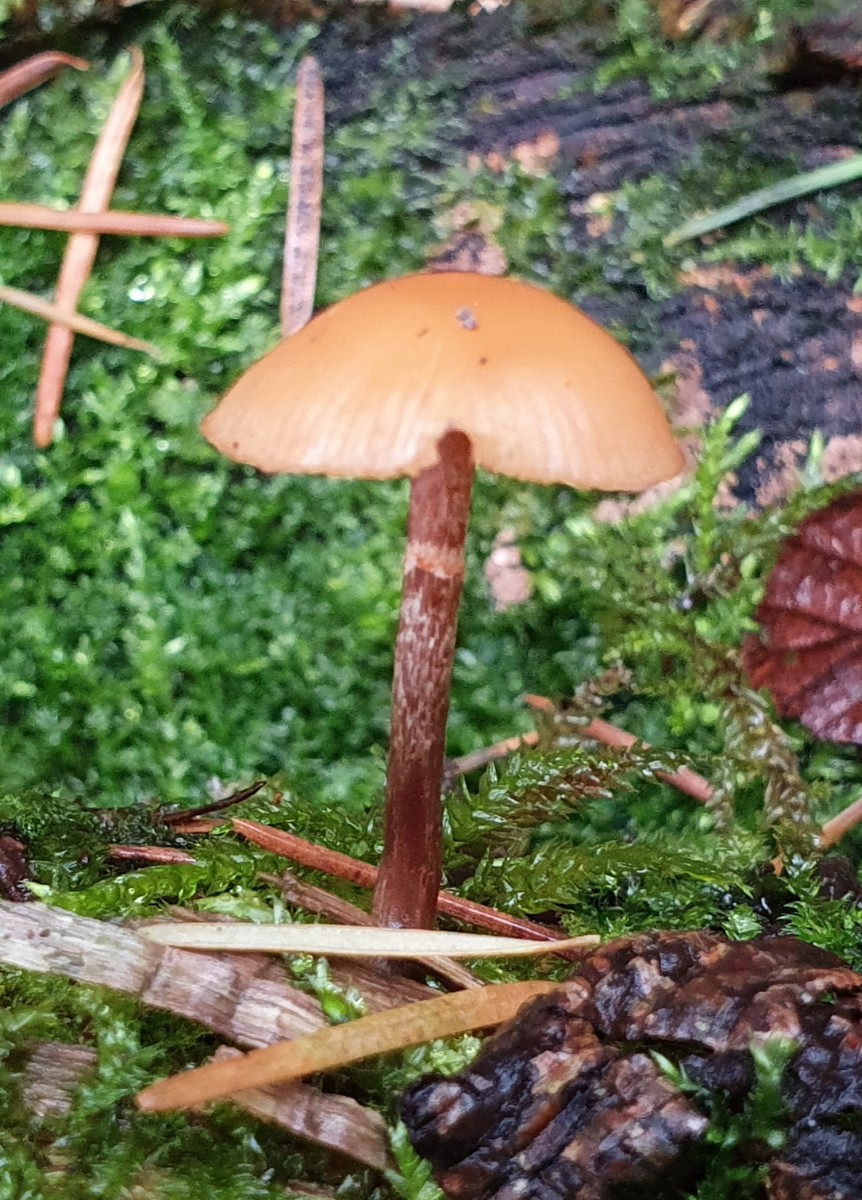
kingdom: Fungi
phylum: Basidiomycota
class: Agaricomycetes
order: Agaricales
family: Hymenogastraceae
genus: Galerina
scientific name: Galerina marginata
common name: randbæltet hjelmhat
